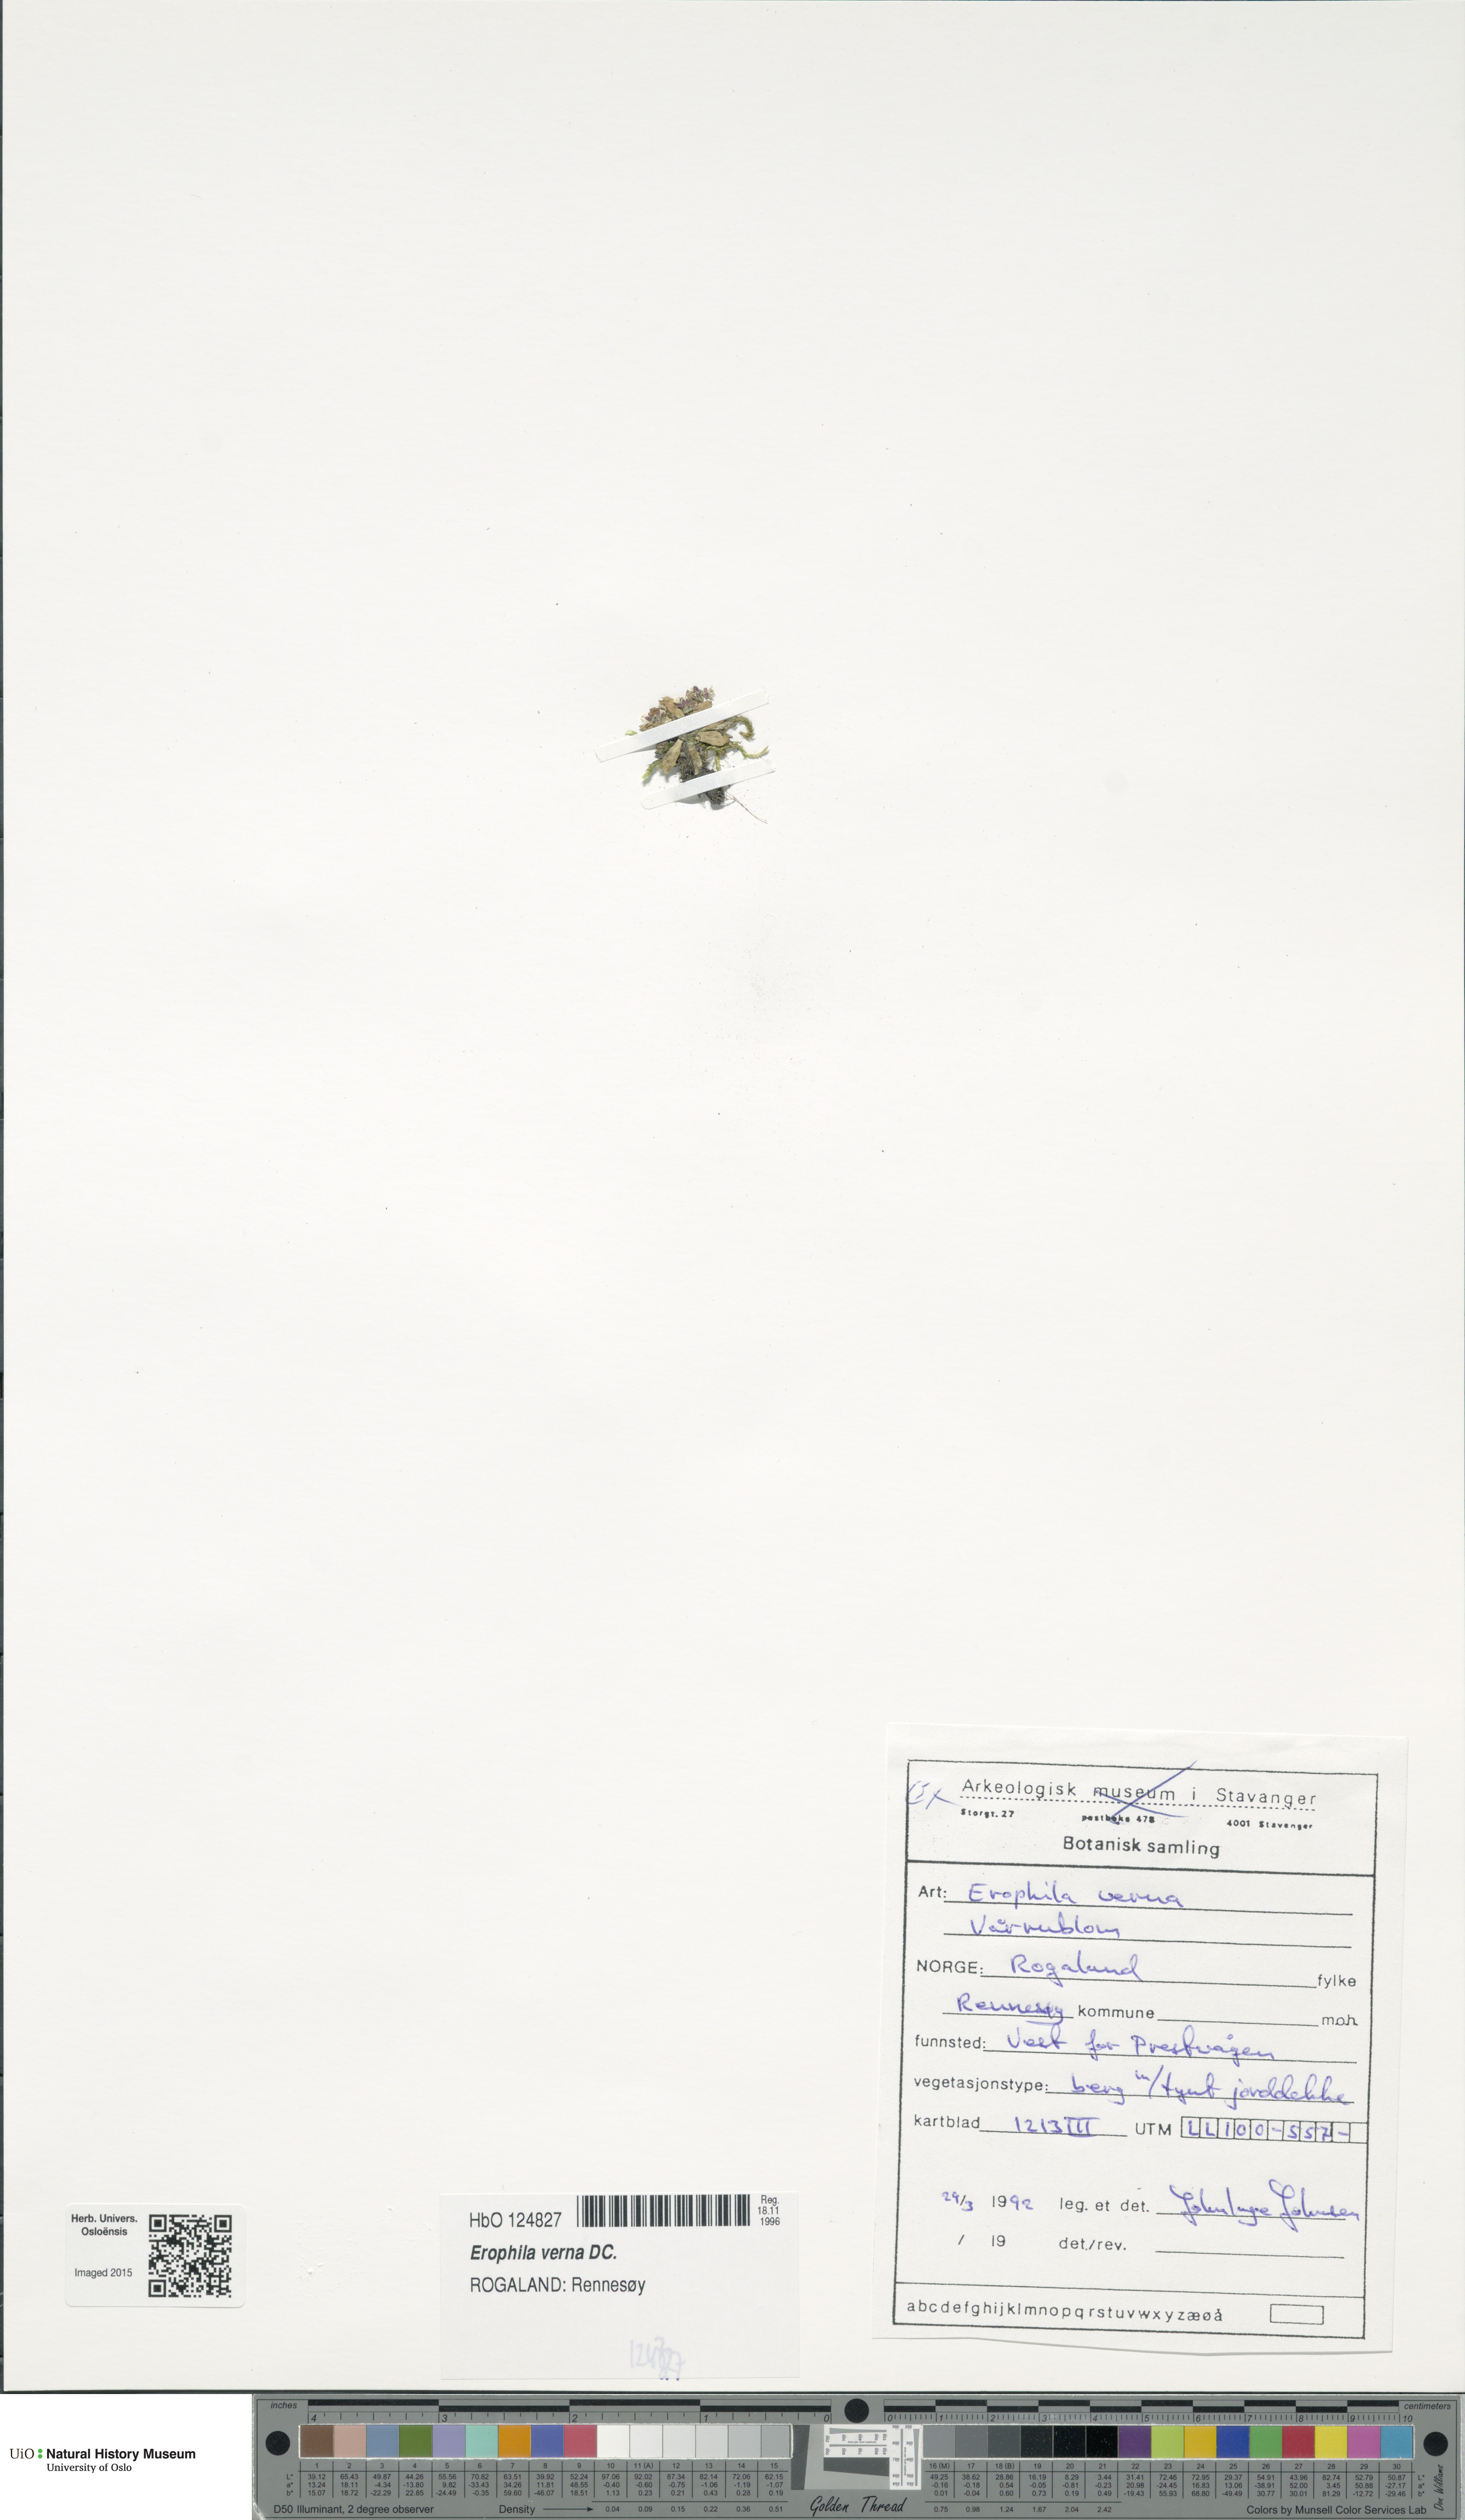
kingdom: Plantae
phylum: Tracheophyta
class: Magnoliopsida
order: Brassicales
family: Brassicaceae
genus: Draba
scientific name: Draba verna
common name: Spring draba
